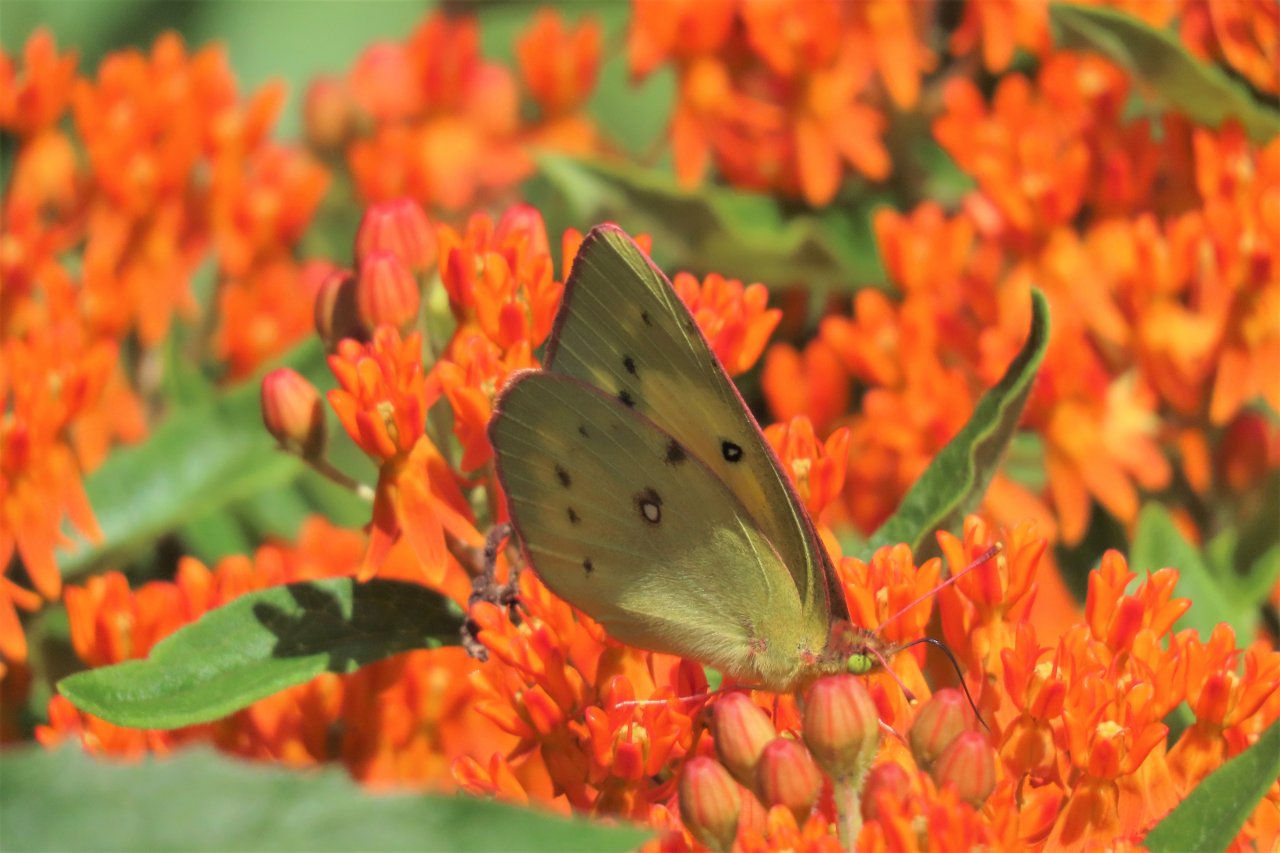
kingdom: Animalia
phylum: Arthropoda
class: Insecta
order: Lepidoptera
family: Pieridae
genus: Colias
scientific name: Colias philodice
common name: Clouded Sulphur
